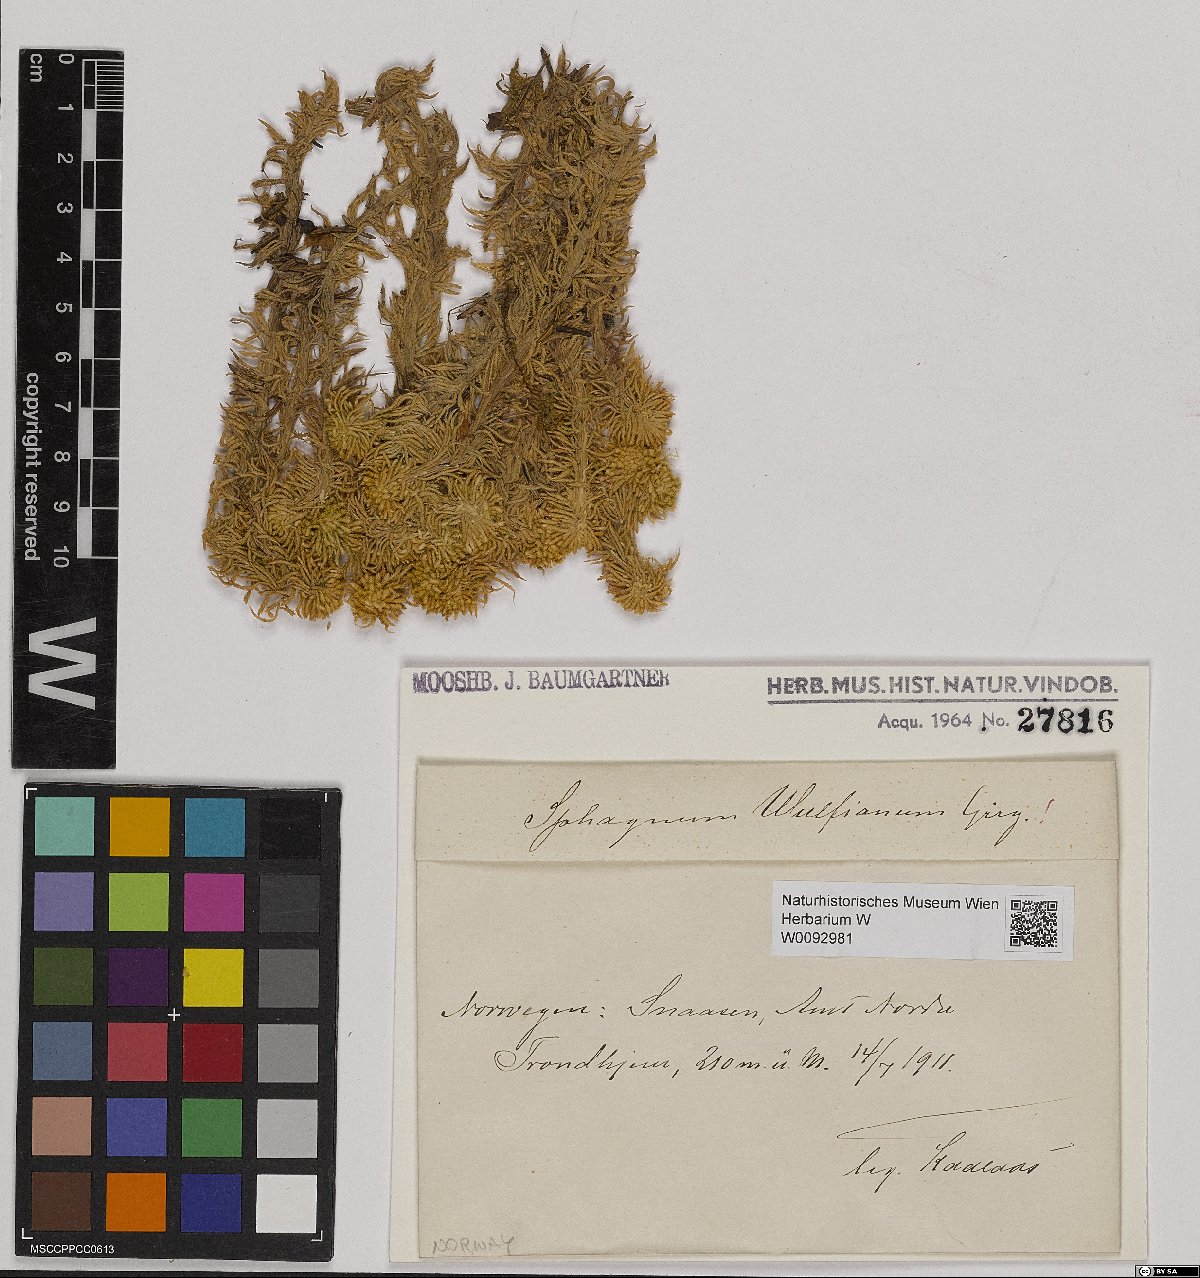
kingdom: Plantae
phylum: Bryophyta
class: Sphagnopsida
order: Sphagnales
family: Sphagnaceae
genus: Sphagnum
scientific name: Sphagnum wulfianum
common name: Wulf's peat moss
